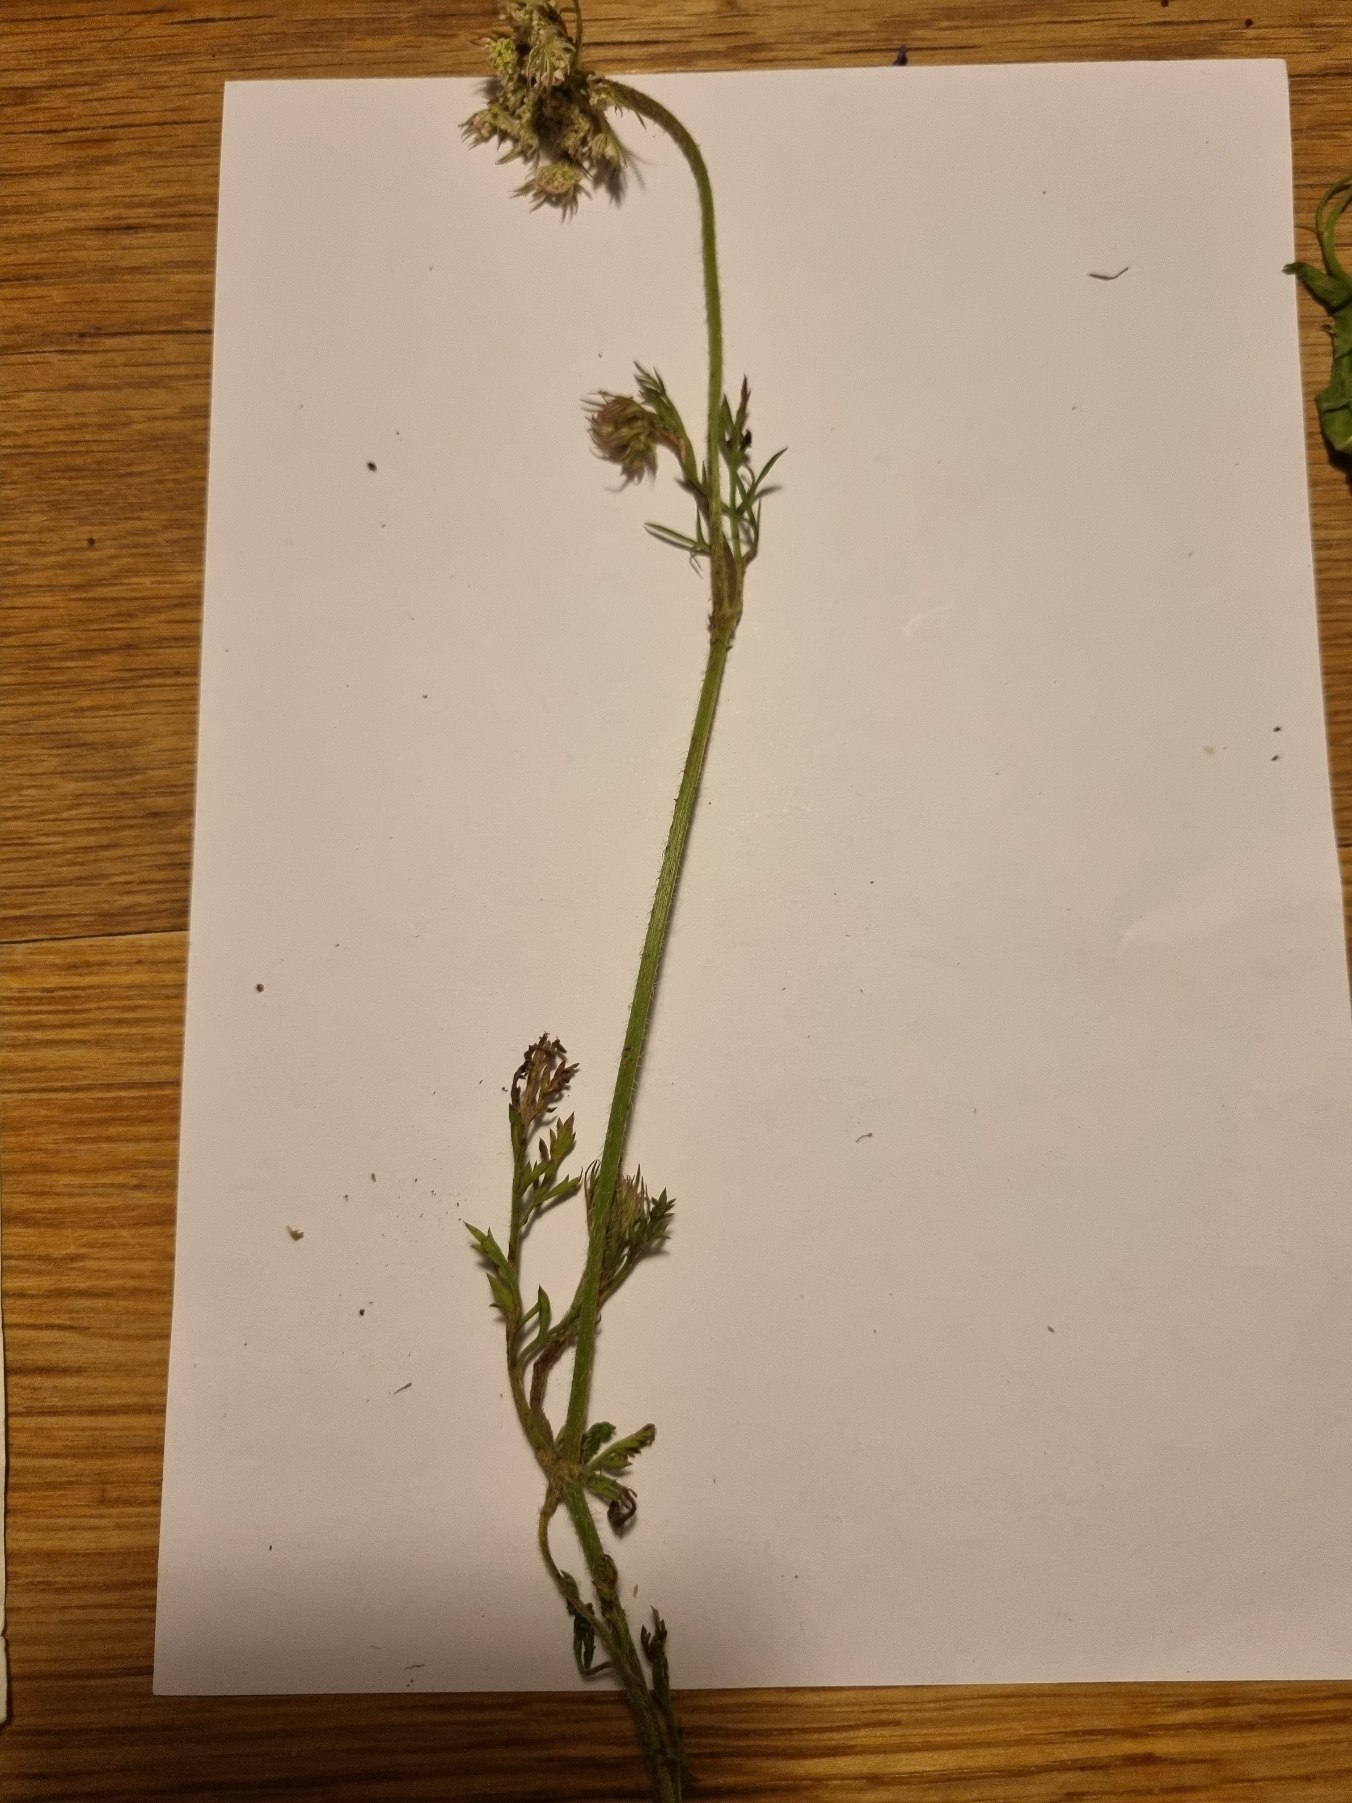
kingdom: Plantae
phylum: Tracheophyta
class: Magnoliopsida
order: Apiales
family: Apiaceae
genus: Daucus
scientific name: Daucus carota
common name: Gulerod
